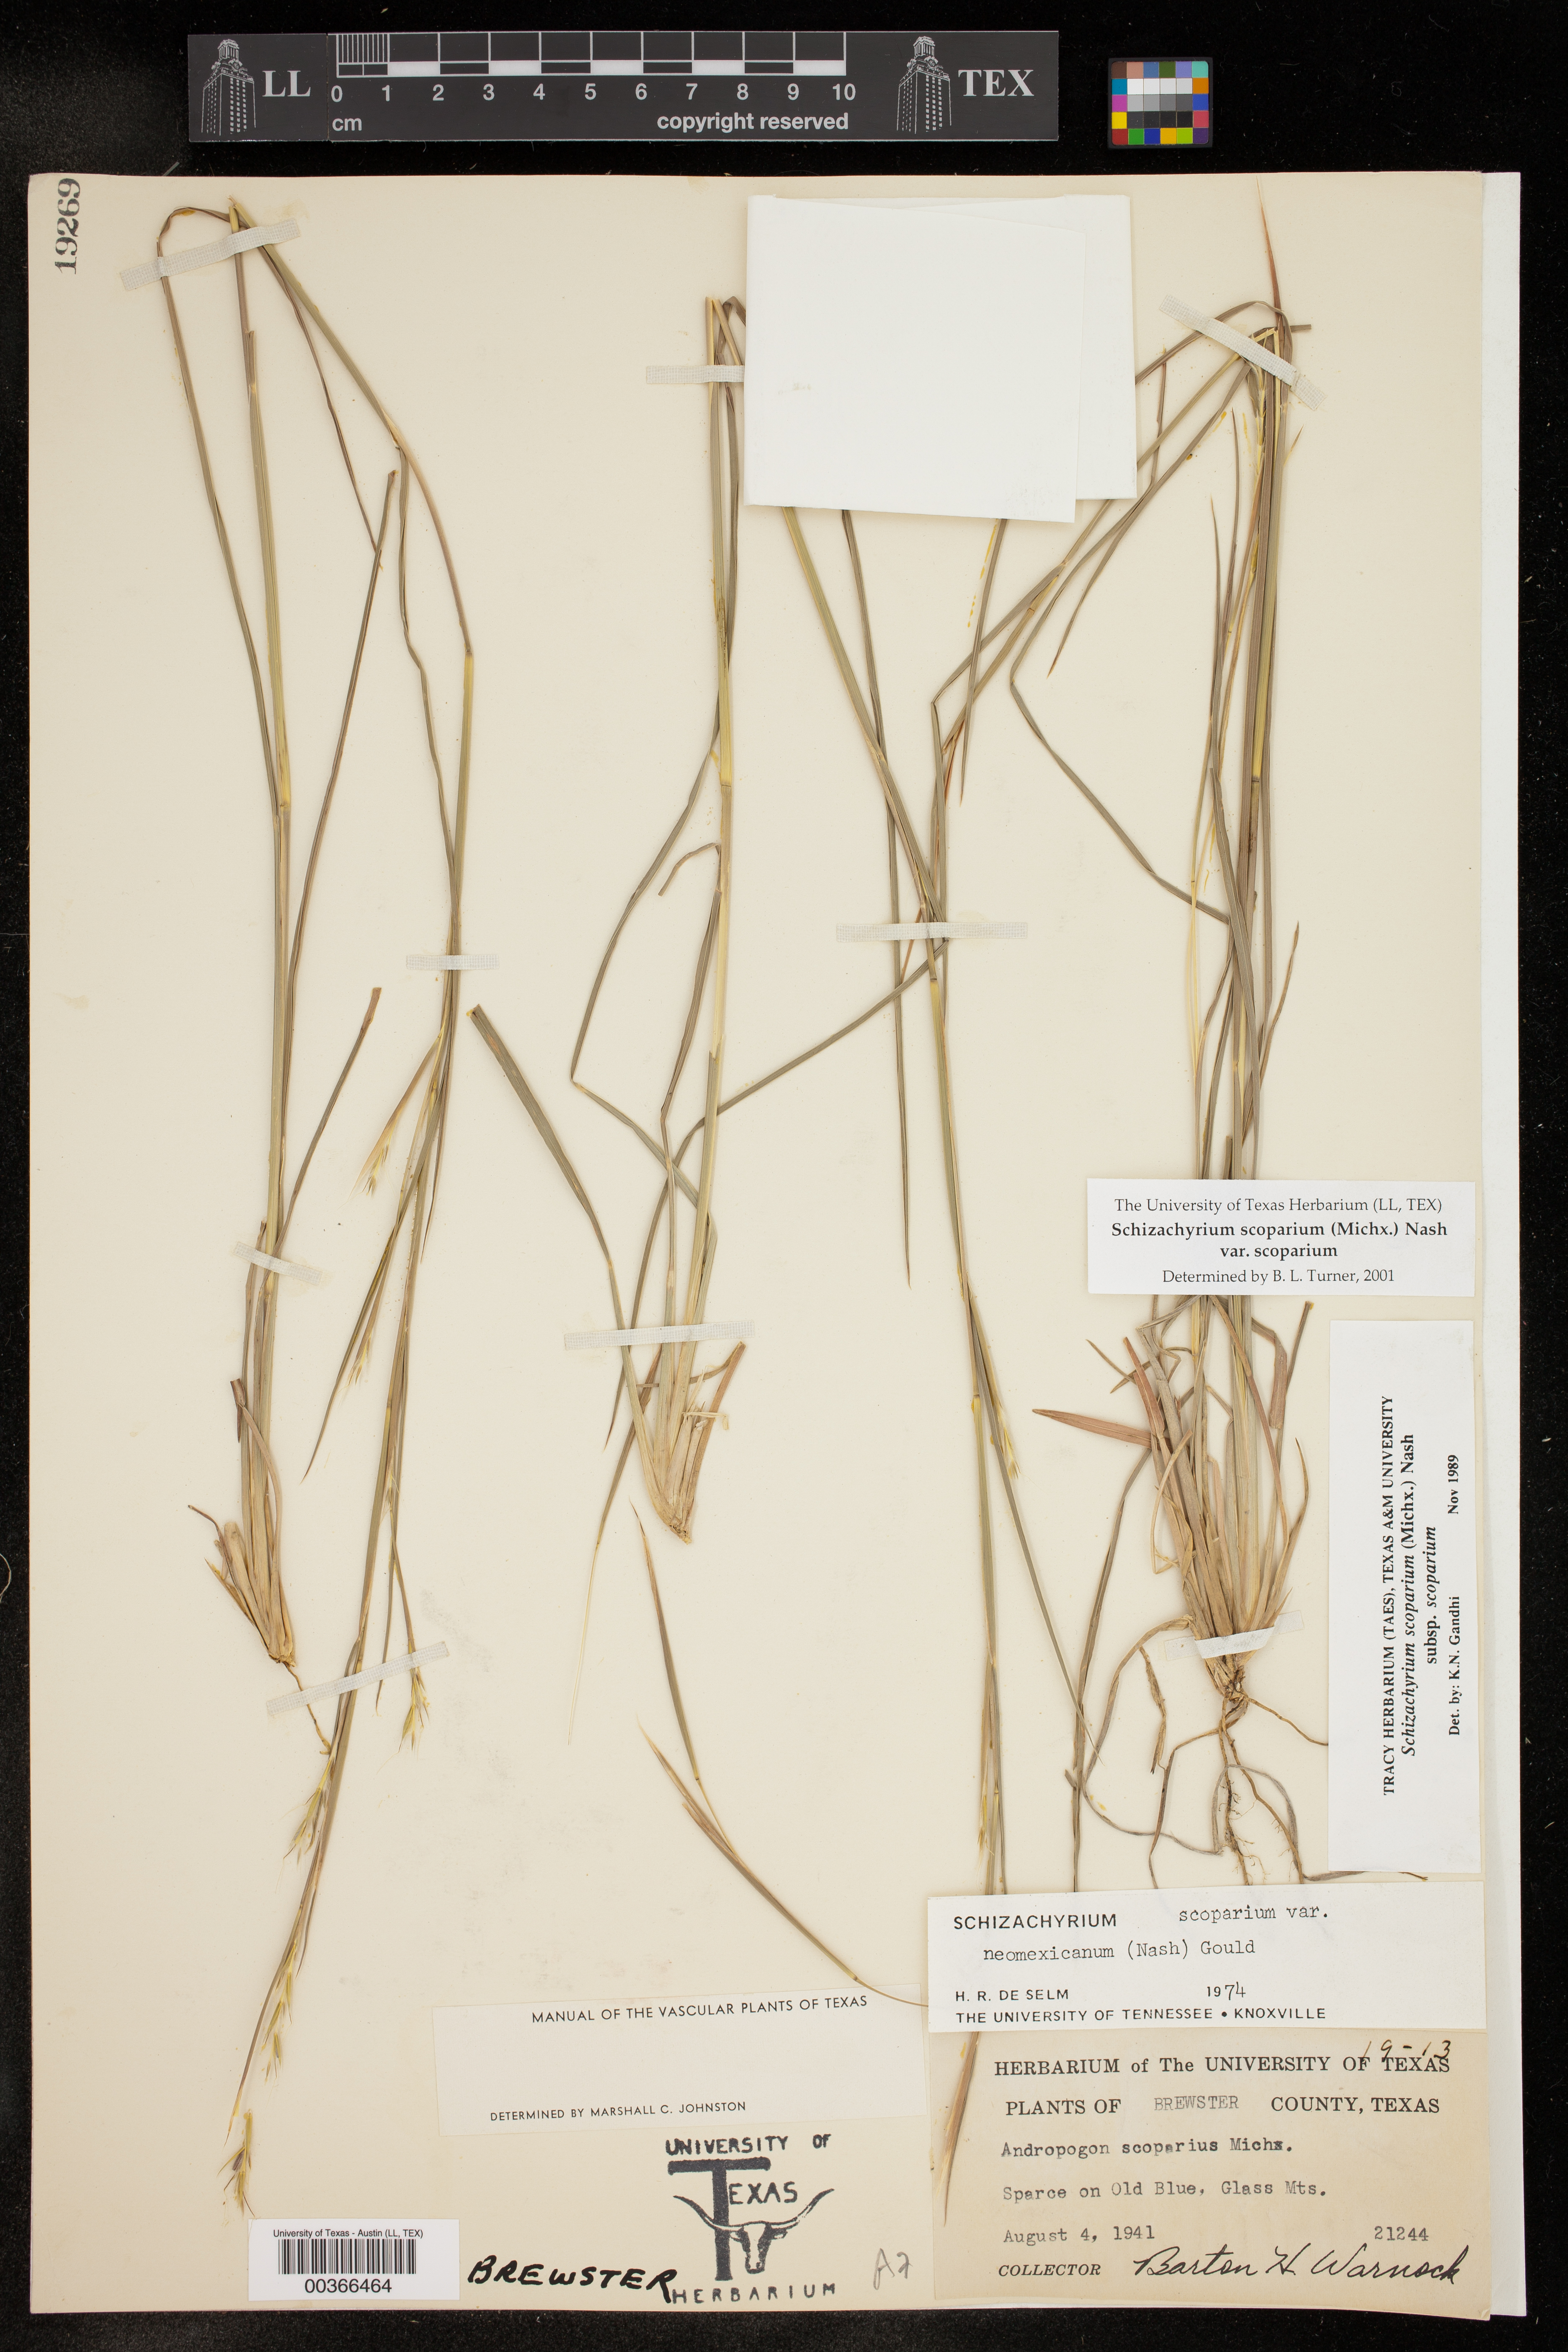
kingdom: Plantae
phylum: Tracheophyta
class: Liliopsida
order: Poales
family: Poaceae
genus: Schizachyrium
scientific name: Schizachyrium scoparium
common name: Little bluestem
